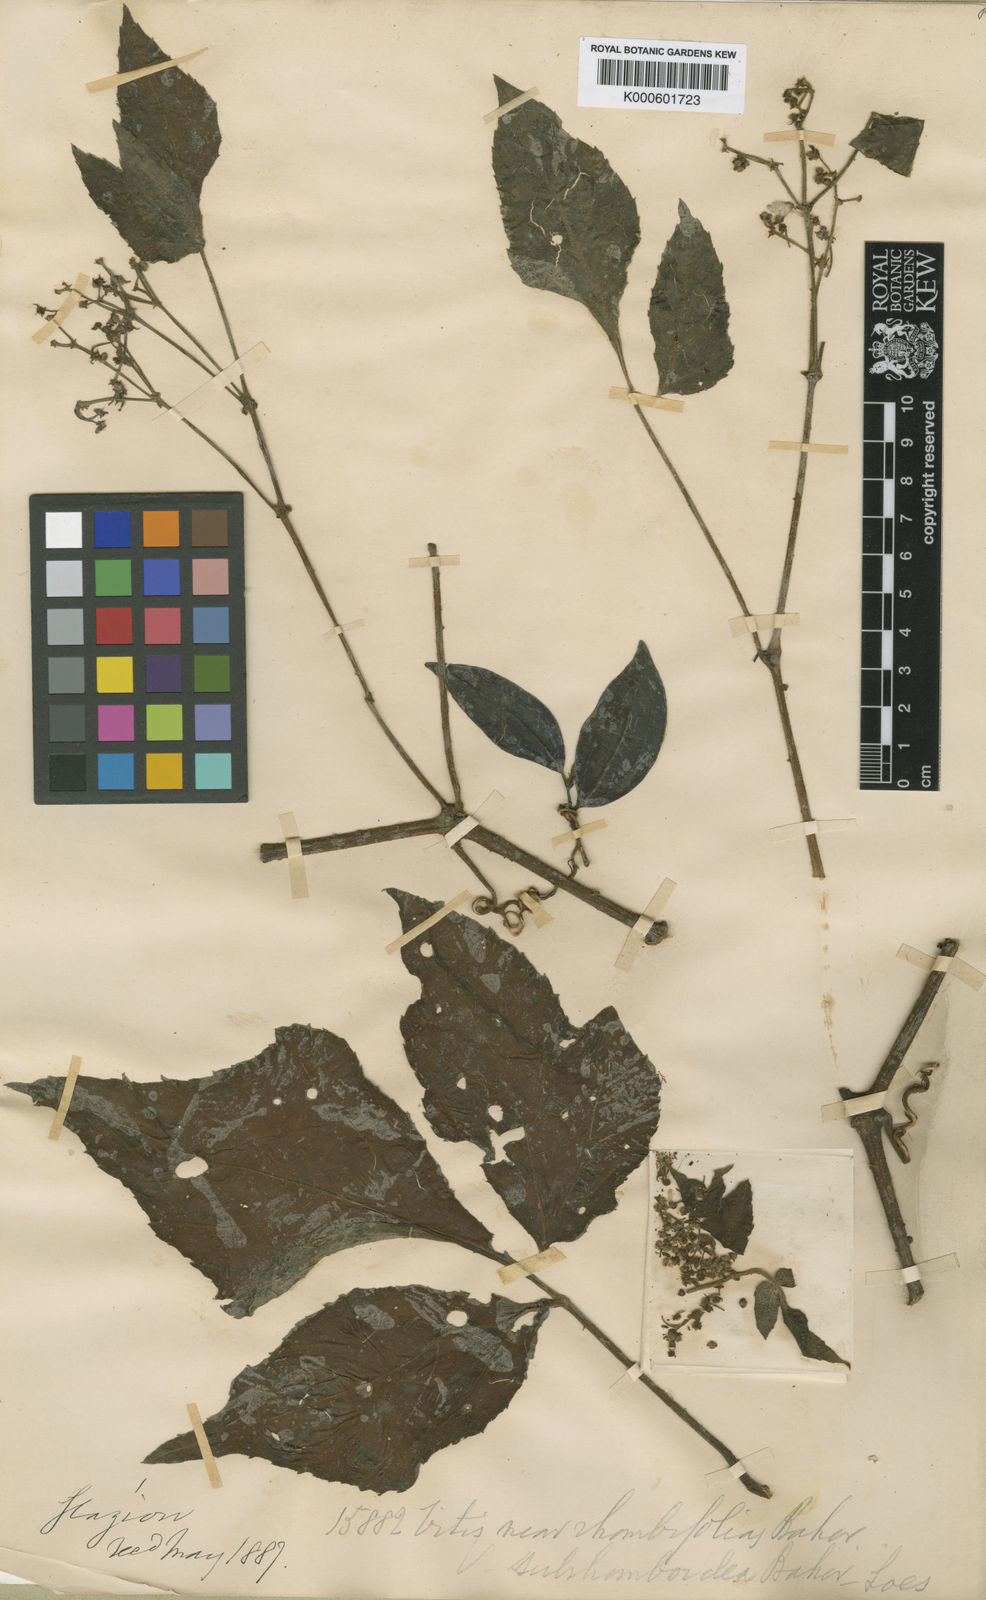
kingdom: Plantae
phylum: Tracheophyta
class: Magnoliopsida
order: Vitales
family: Vitaceae
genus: Cissus
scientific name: Cissus albida
